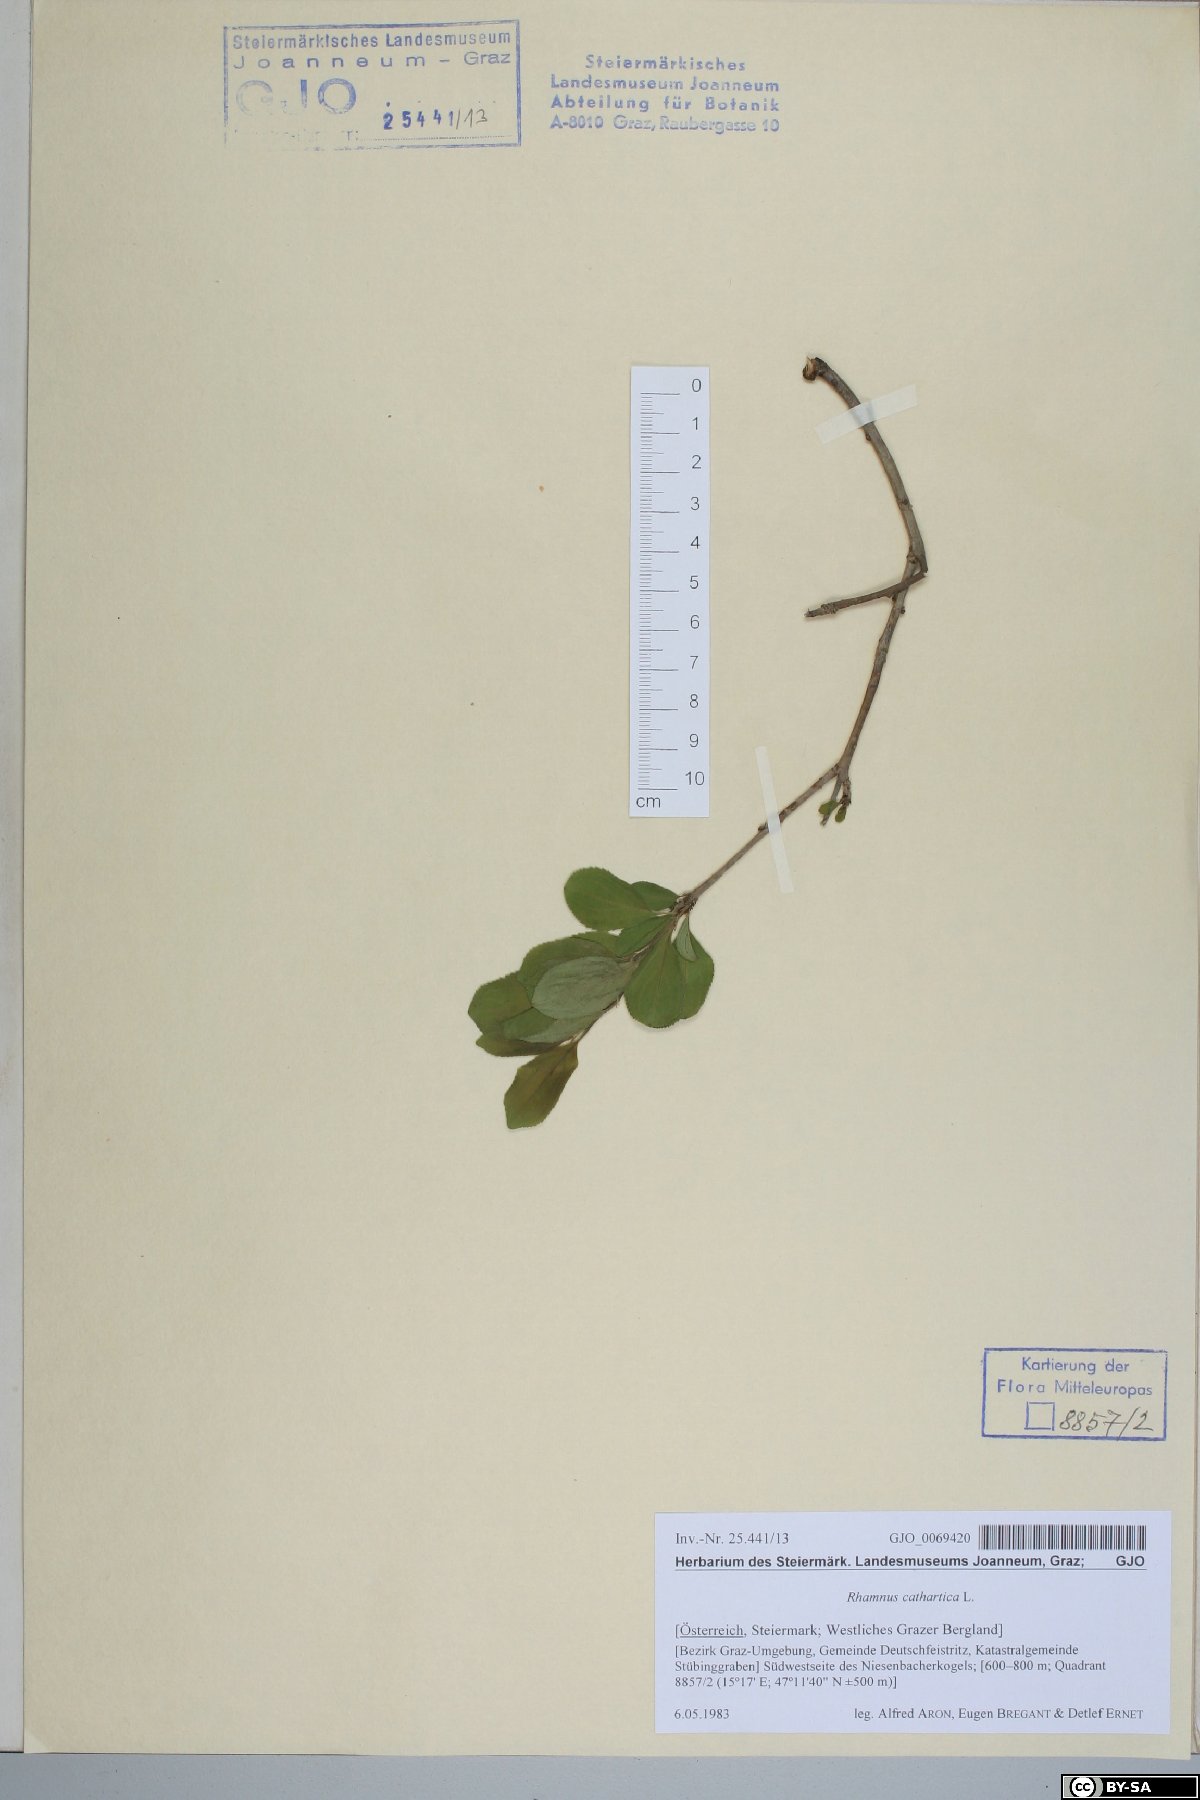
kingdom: Plantae
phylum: Tracheophyta
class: Magnoliopsida
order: Rosales
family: Rhamnaceae
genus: Rhamnus
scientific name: Rhamnus cathartica
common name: Common buckthorn
